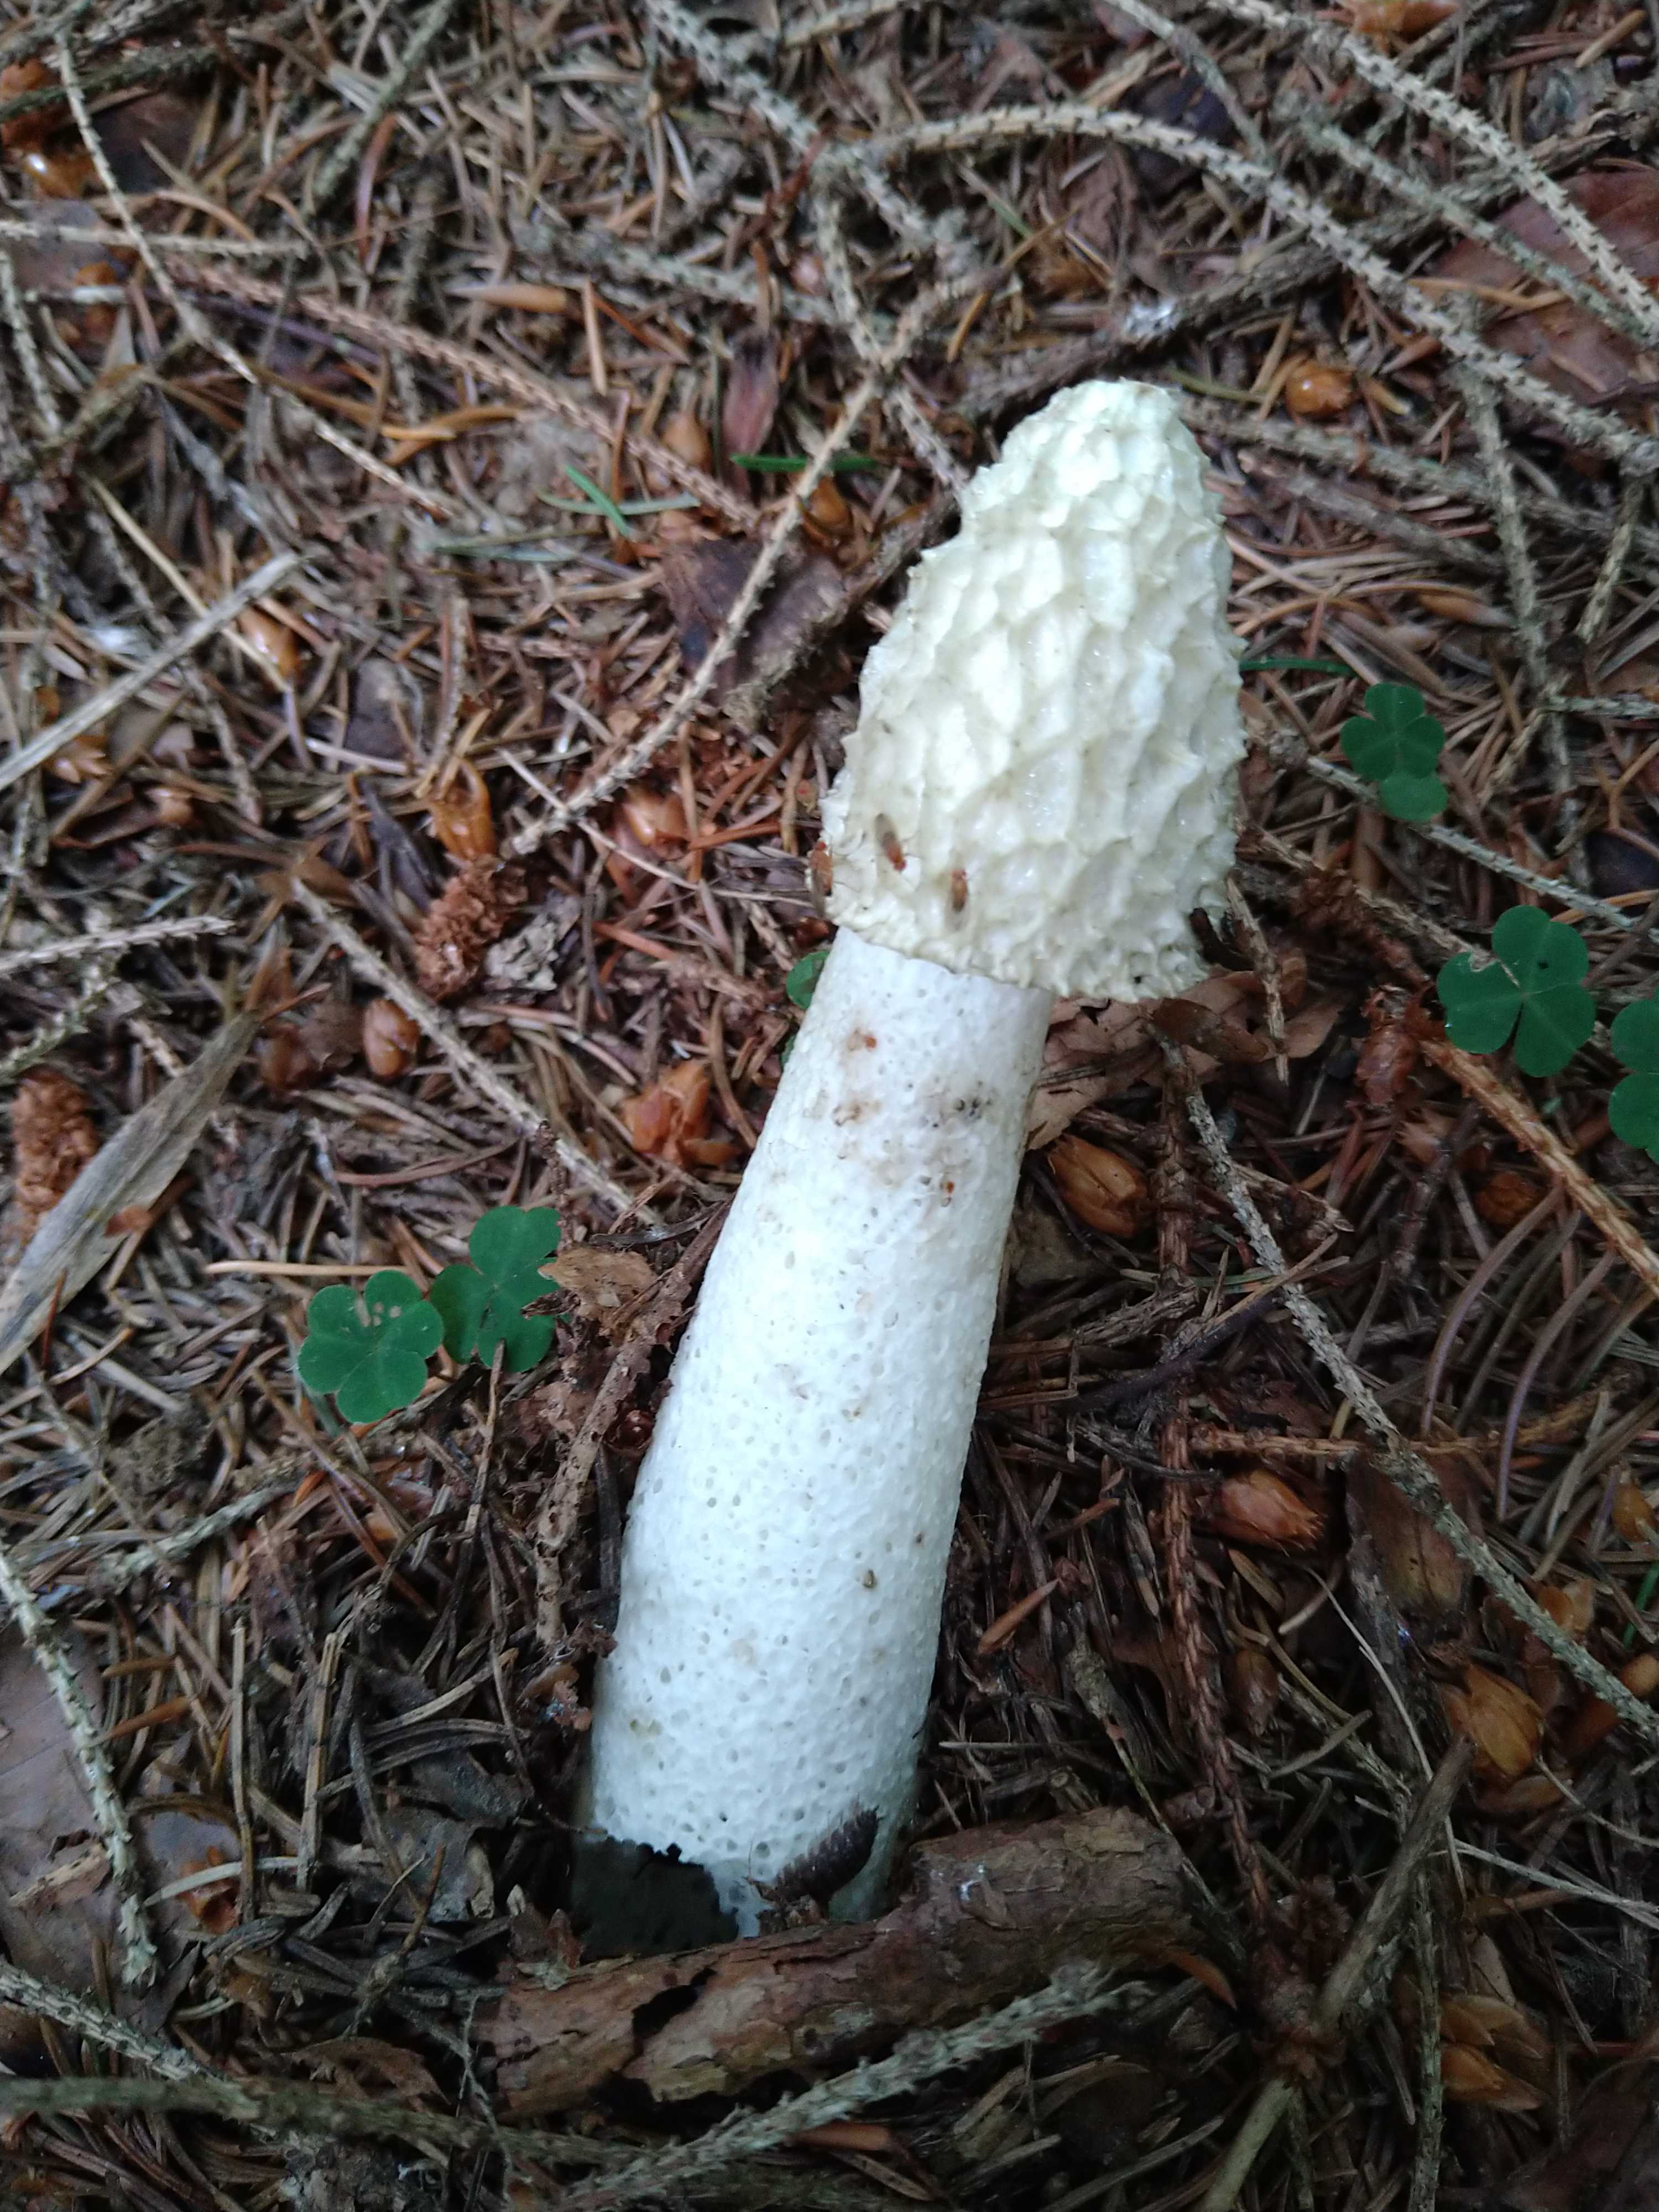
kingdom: Fungi
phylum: Basidiomycota
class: Agaricomycetes
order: Phallales
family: Phallaceae
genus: Phallus
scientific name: Phallus impudicus
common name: almindelig stinksvamp
